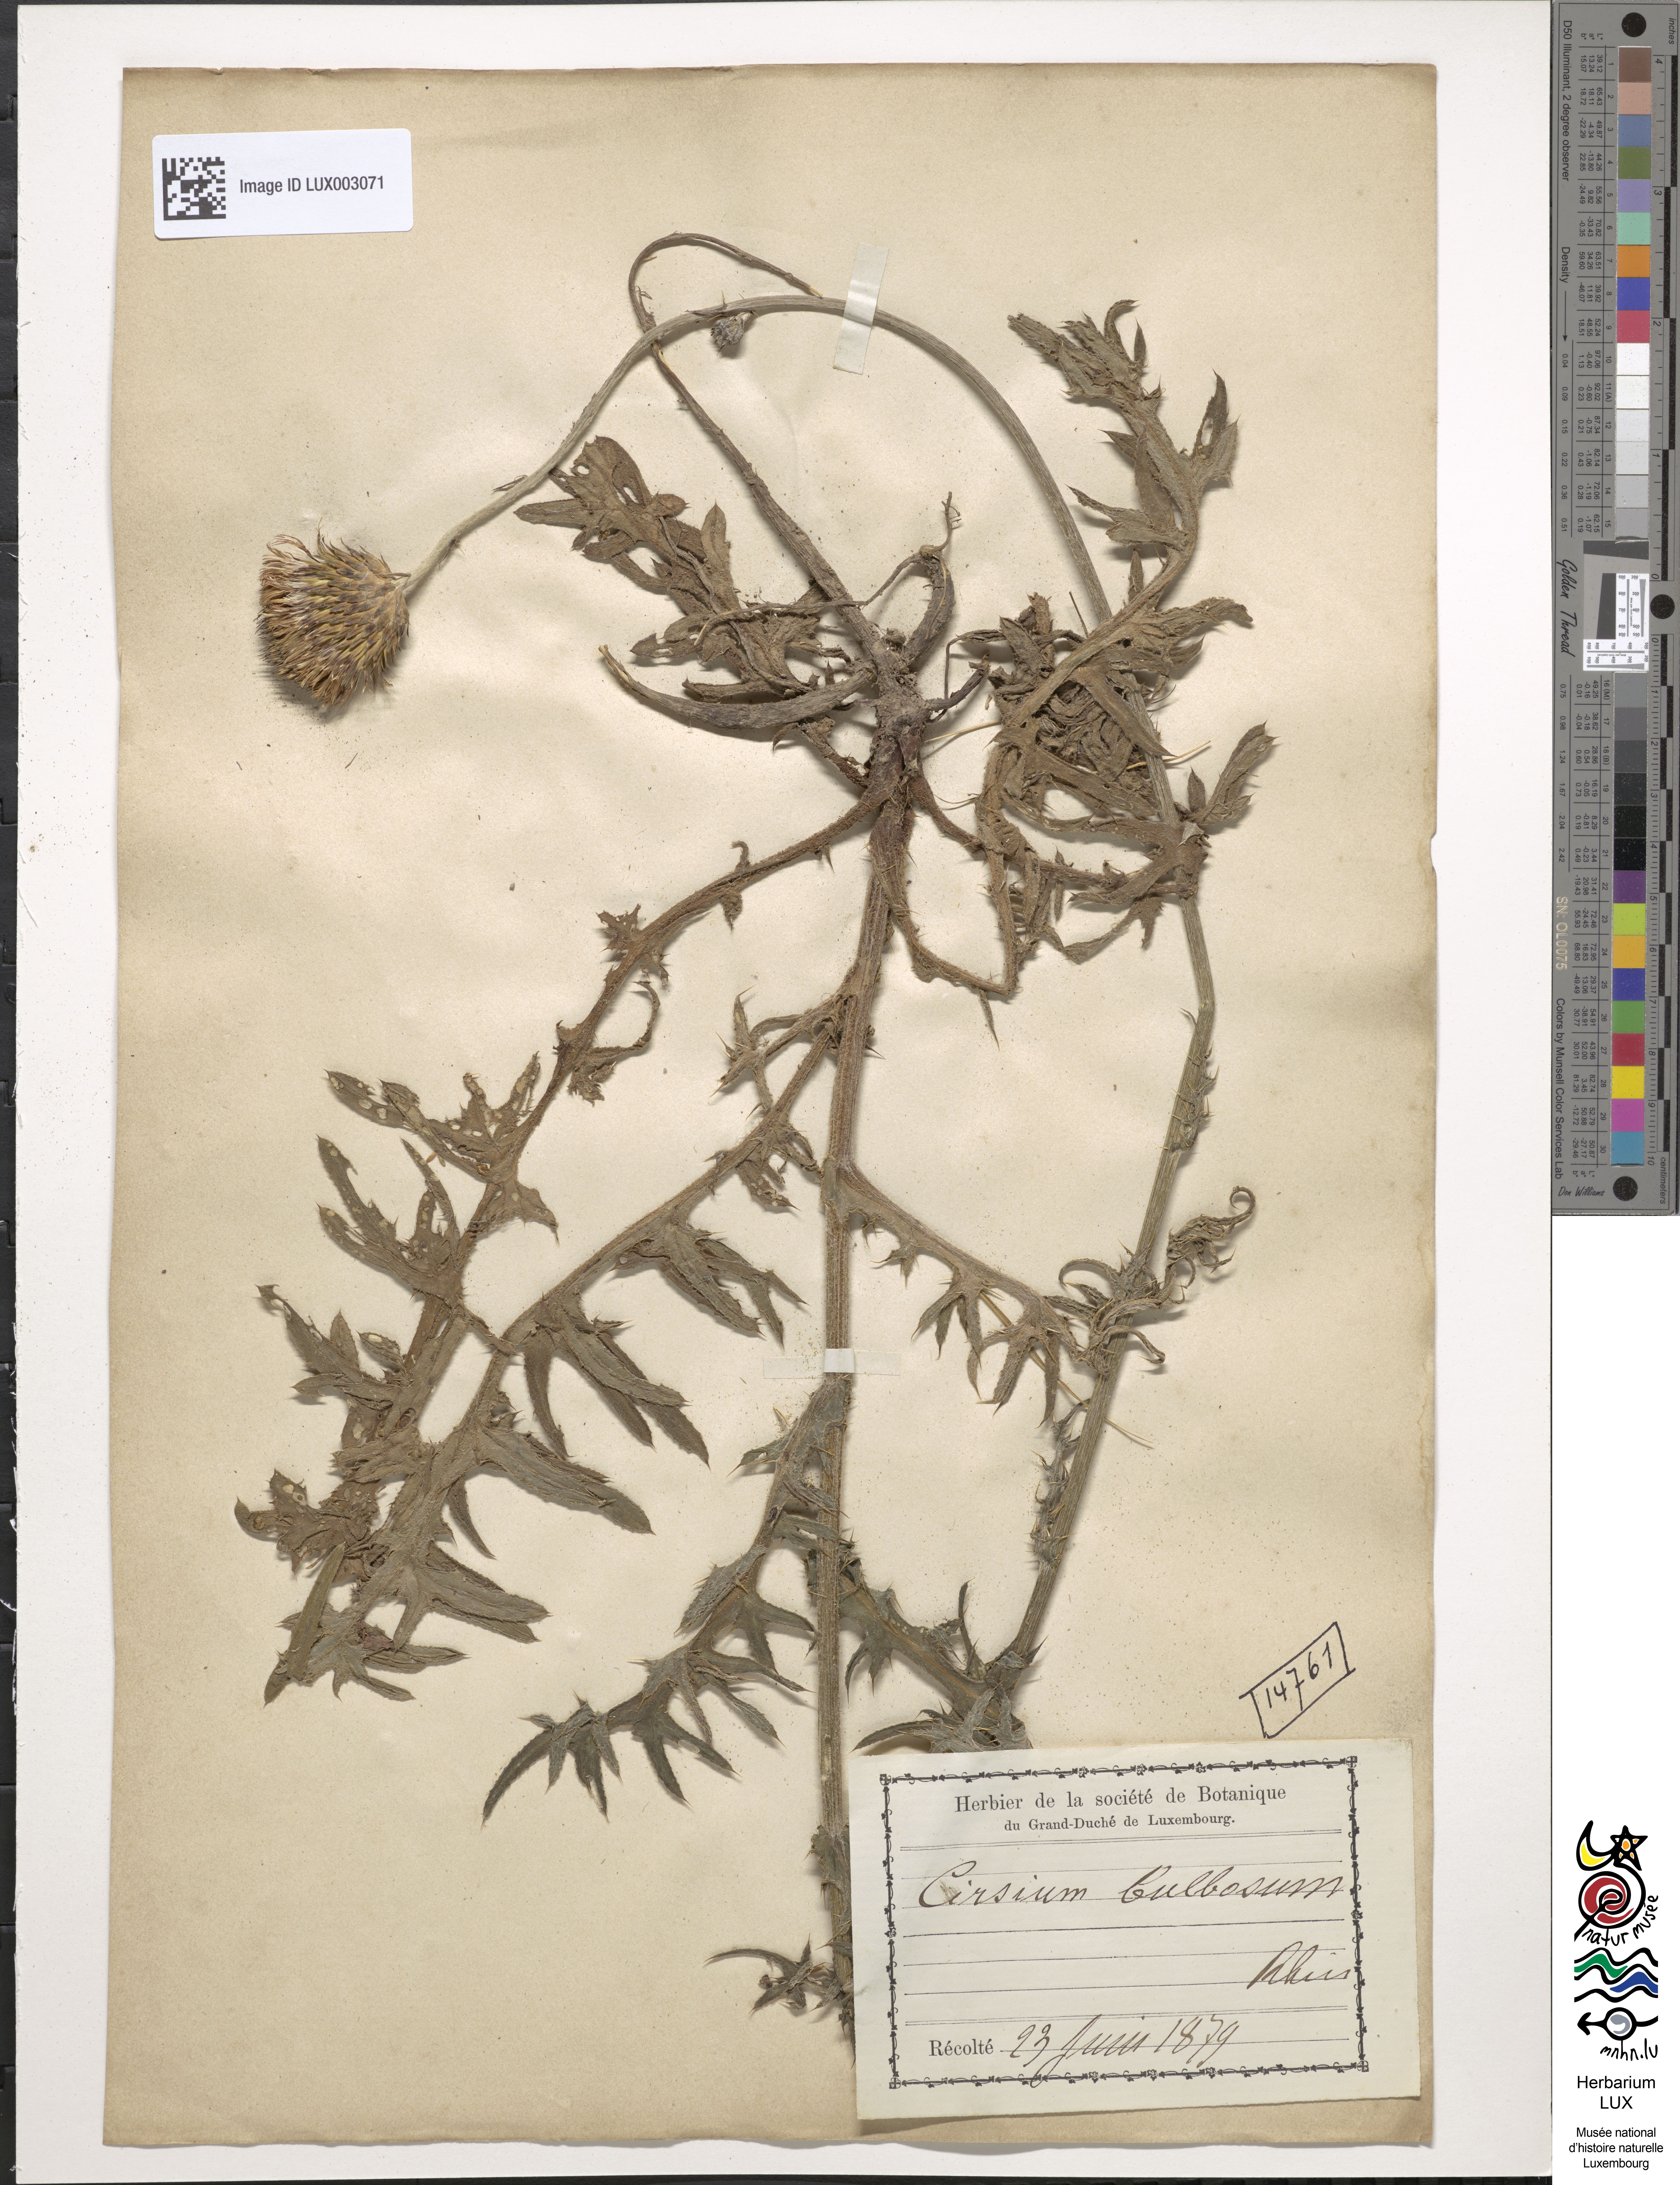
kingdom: Plantae
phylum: Tracheophyta
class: Magnoliopsida
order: Asterales
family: Asteraceae
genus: Cirsium
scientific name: Cirsium tuberosum
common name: Tuberous thistle
